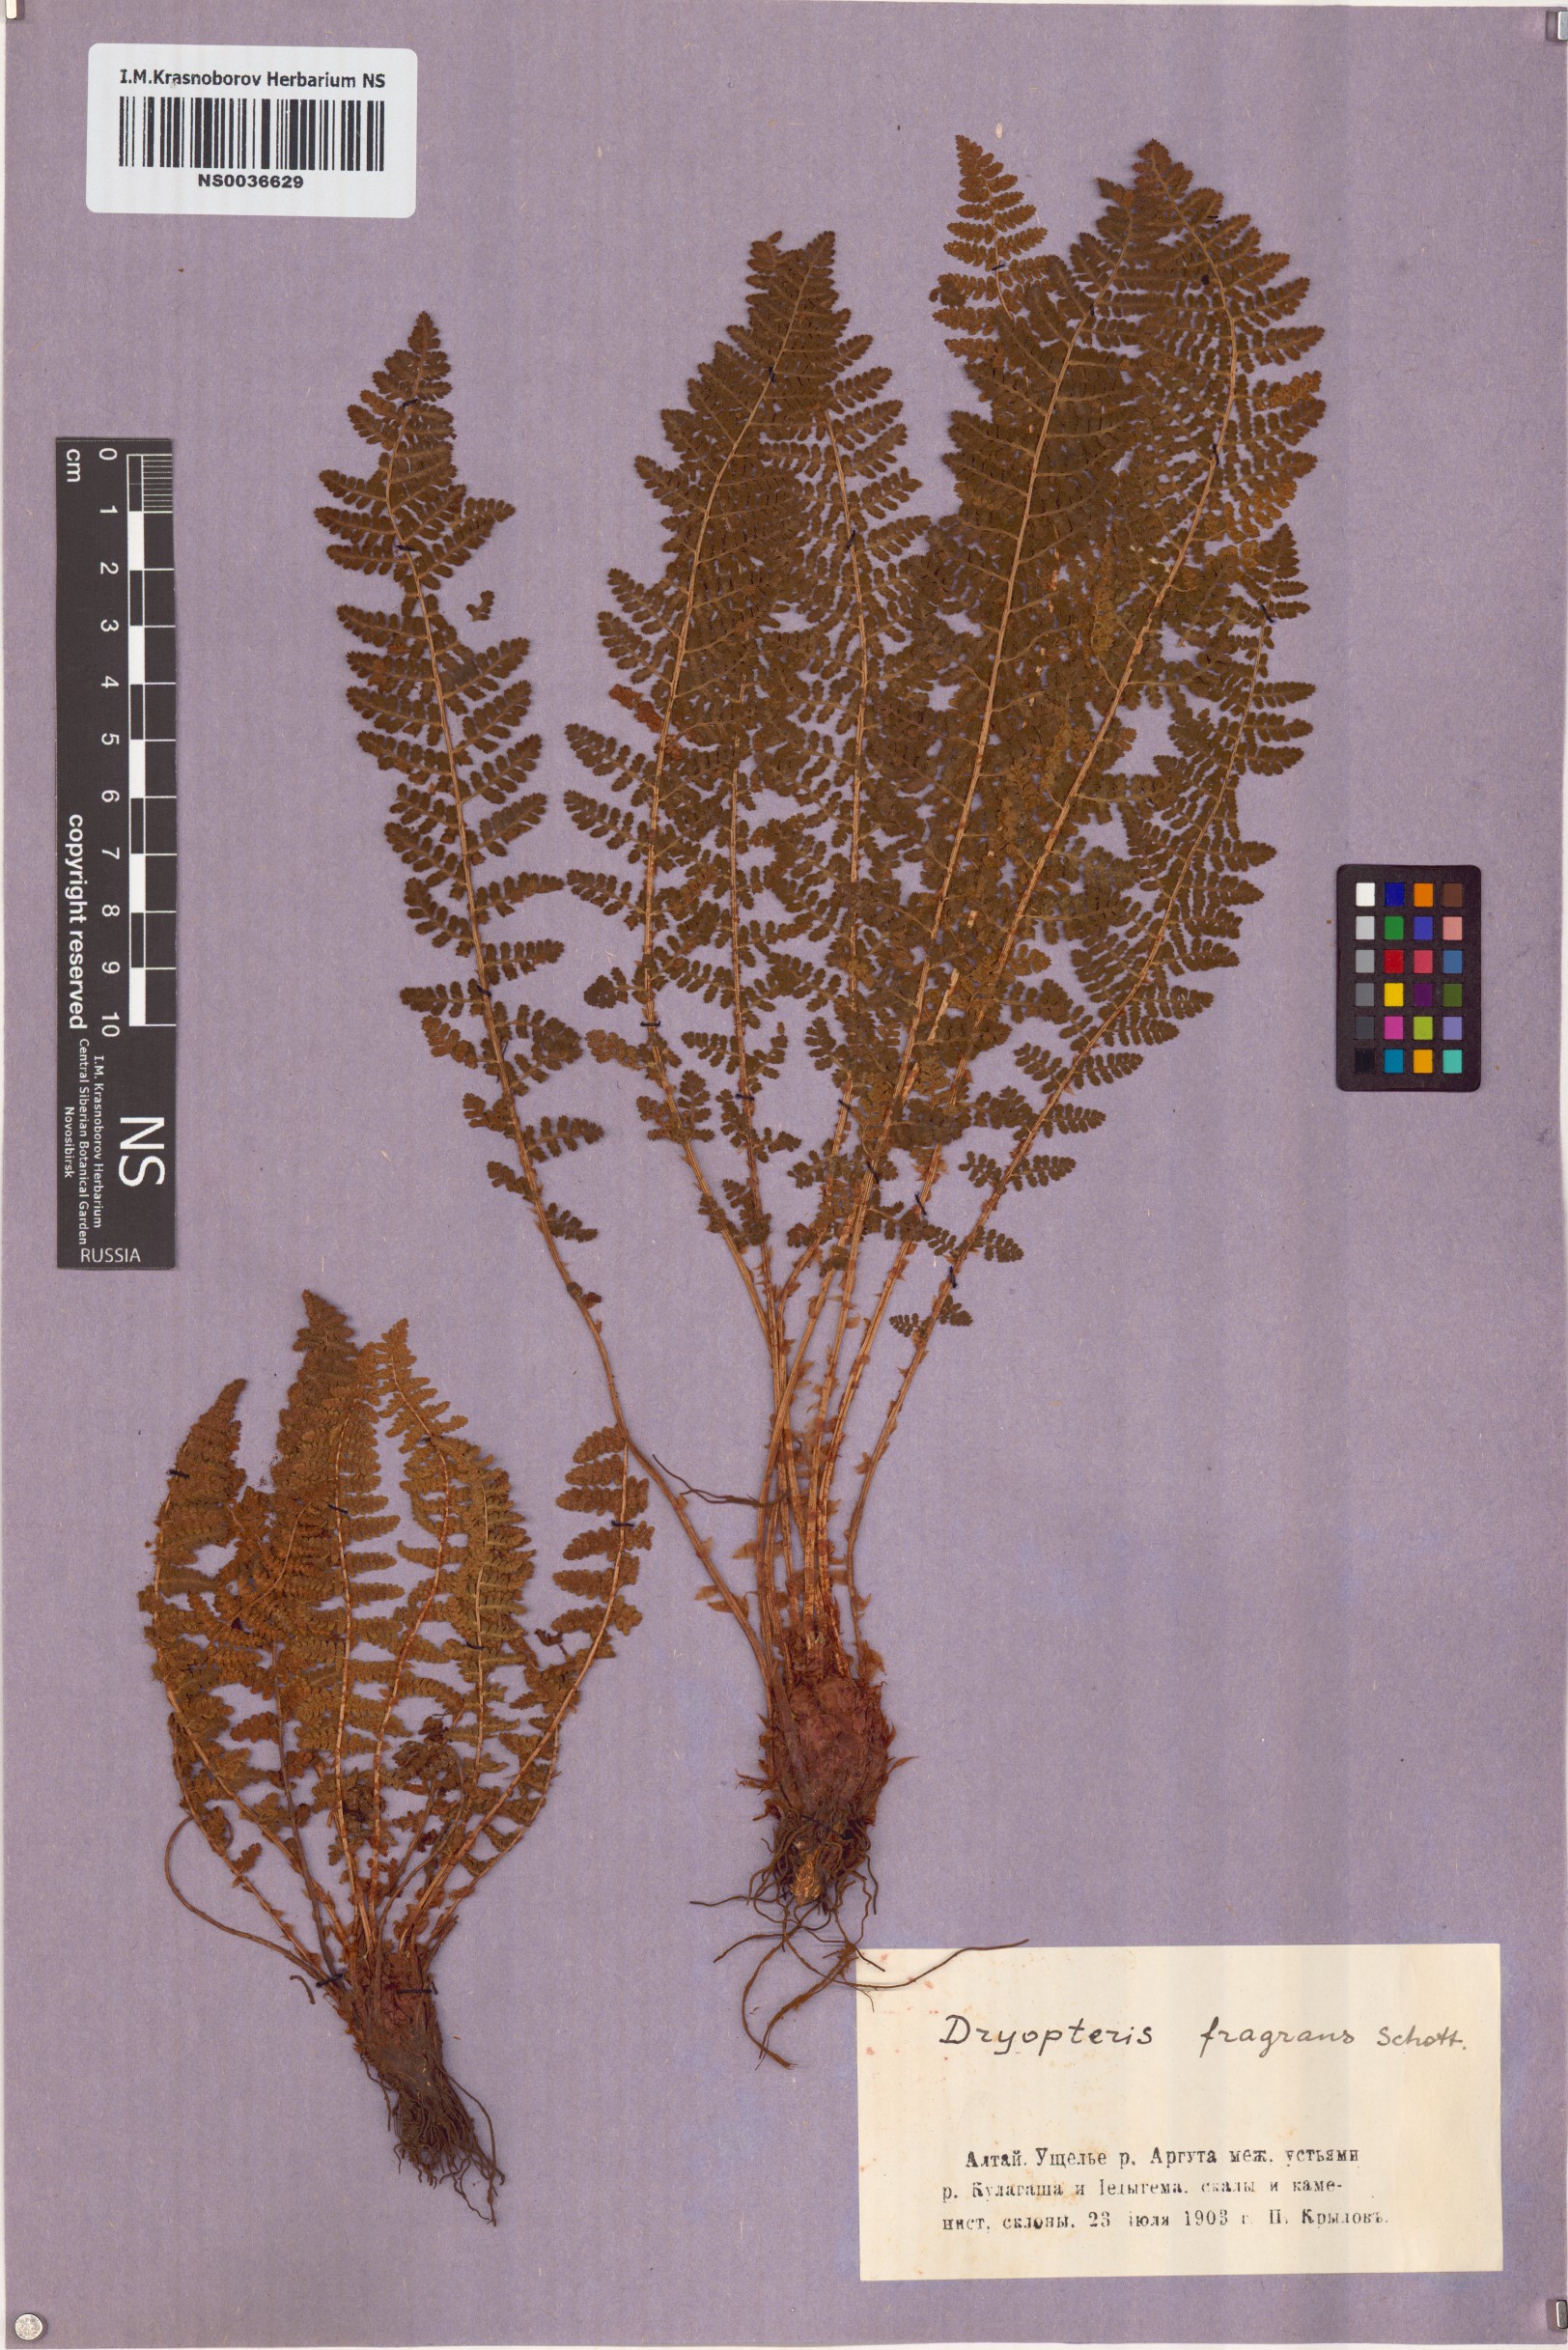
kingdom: Plantae
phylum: Tracheophyta
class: Polypodiopsida
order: Polypodiales
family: Dryopteridaceae
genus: Dryopteris
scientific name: Dryopteris fragrans
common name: Fragrant wood fern
